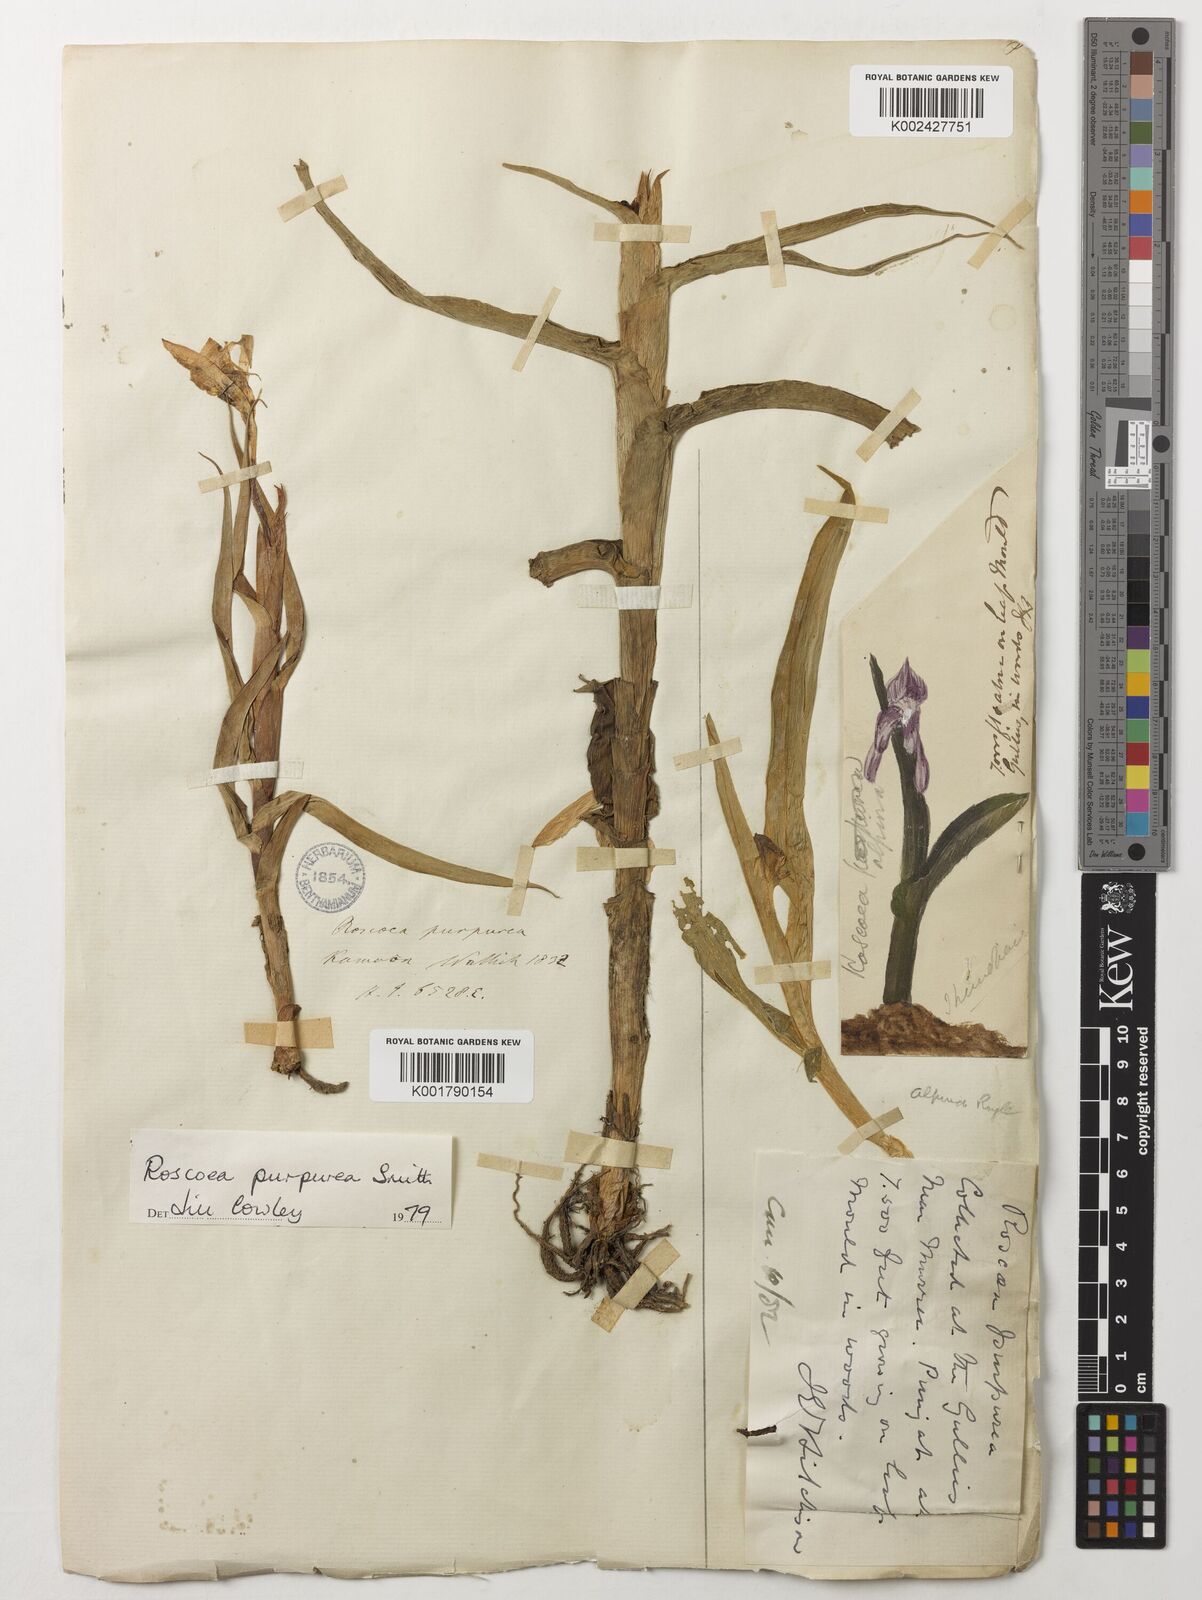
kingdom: Plantae
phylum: Tracheophyta
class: Liliopsida
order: Zingiberales
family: Zingiberaceae
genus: Roscoea
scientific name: Roscoea purpurea
